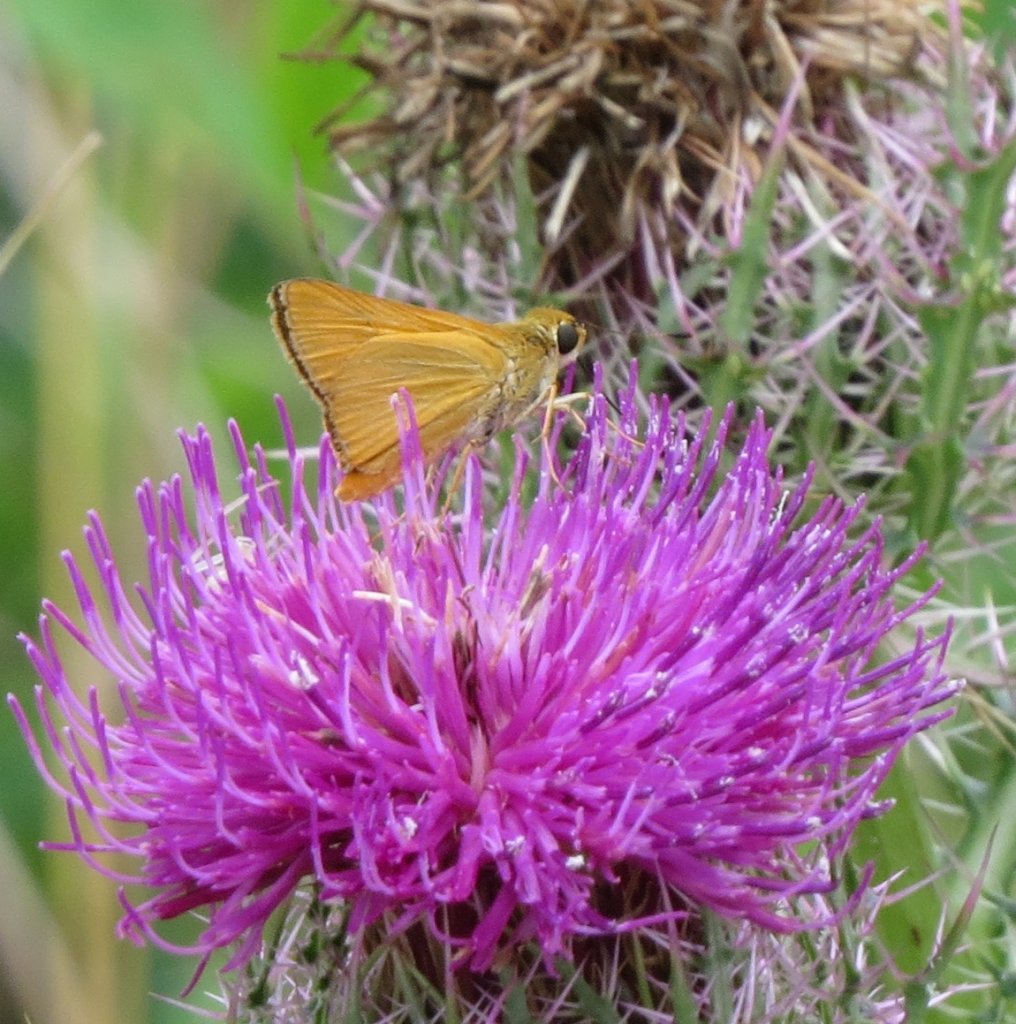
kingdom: Animalia
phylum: Arthropoda
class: Insecta
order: Lepidoptera
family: Hesperiidae
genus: Atrytone
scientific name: Atrytone delaware
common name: Delaware Skipper
